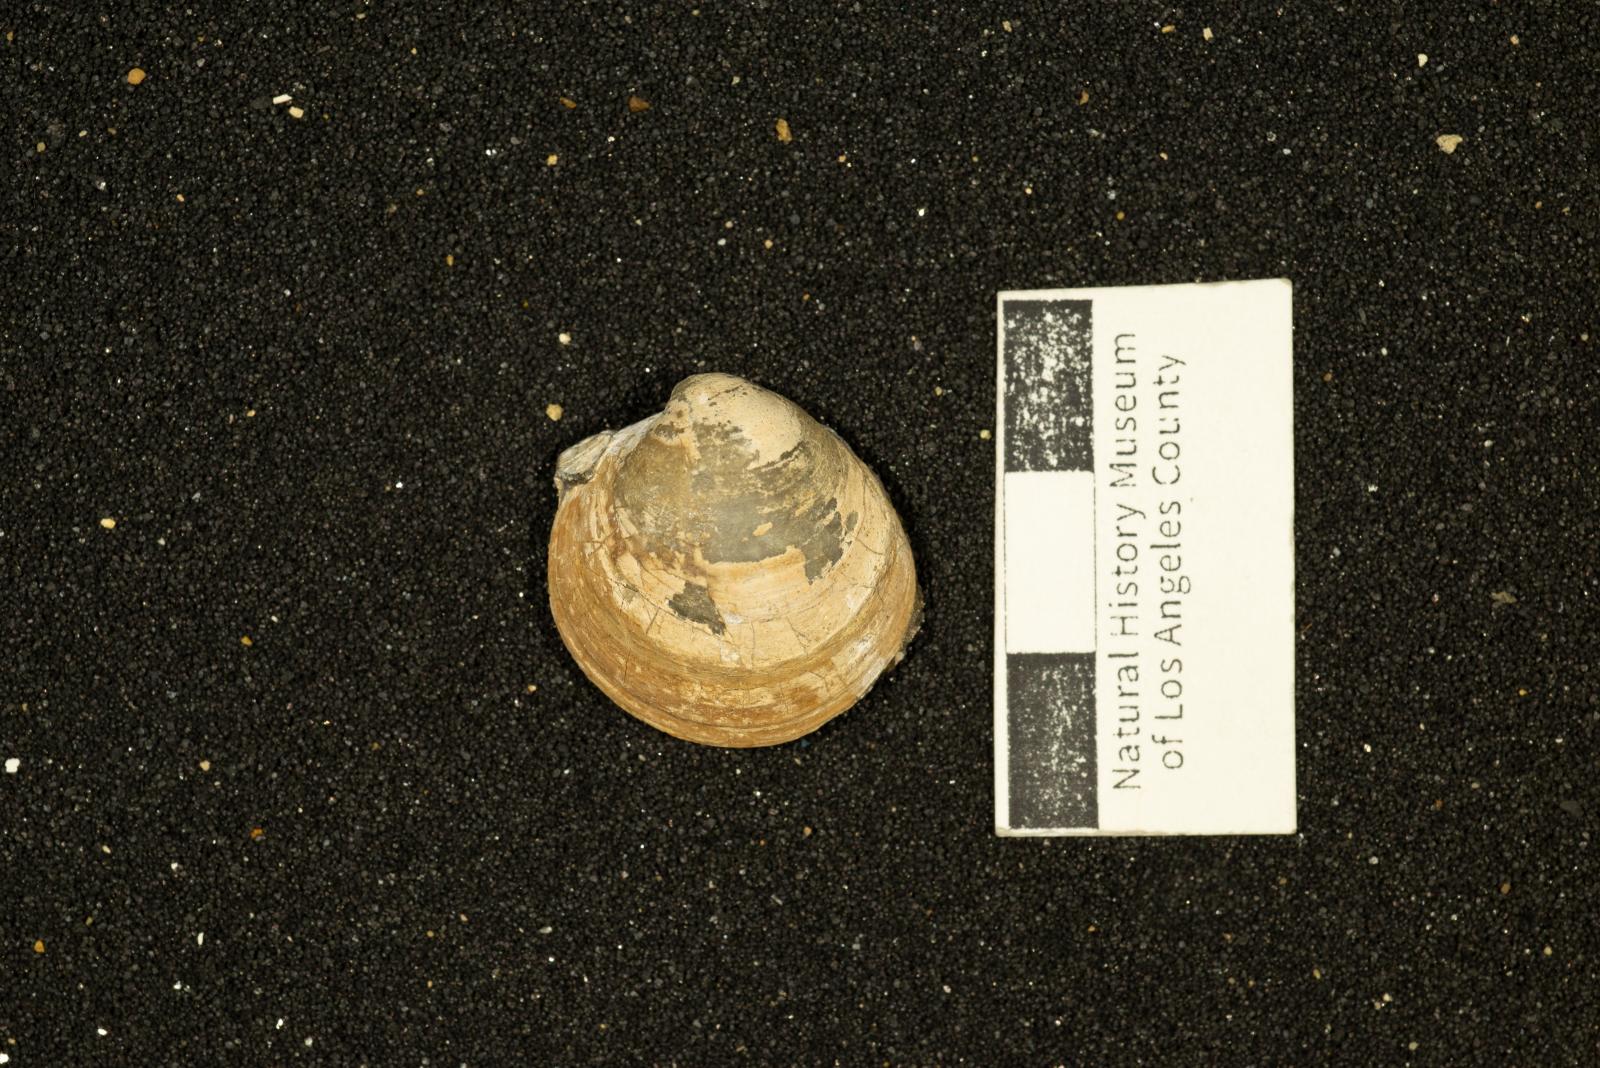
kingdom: Animalia
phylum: Mollusca
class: Bivalvia
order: Venerida
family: Arcticidae
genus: Tenea
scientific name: Tenea
